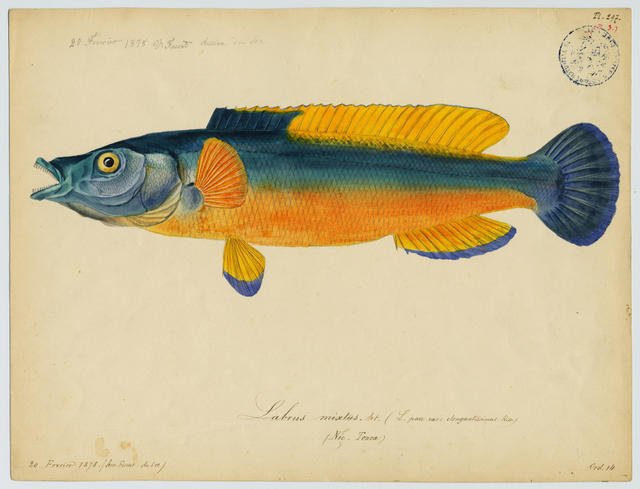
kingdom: Animalia
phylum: Chordata
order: Perciformes
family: Cichlidae
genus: Cichlasoma
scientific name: Cichlasoma bimaculatum
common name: Black acara
